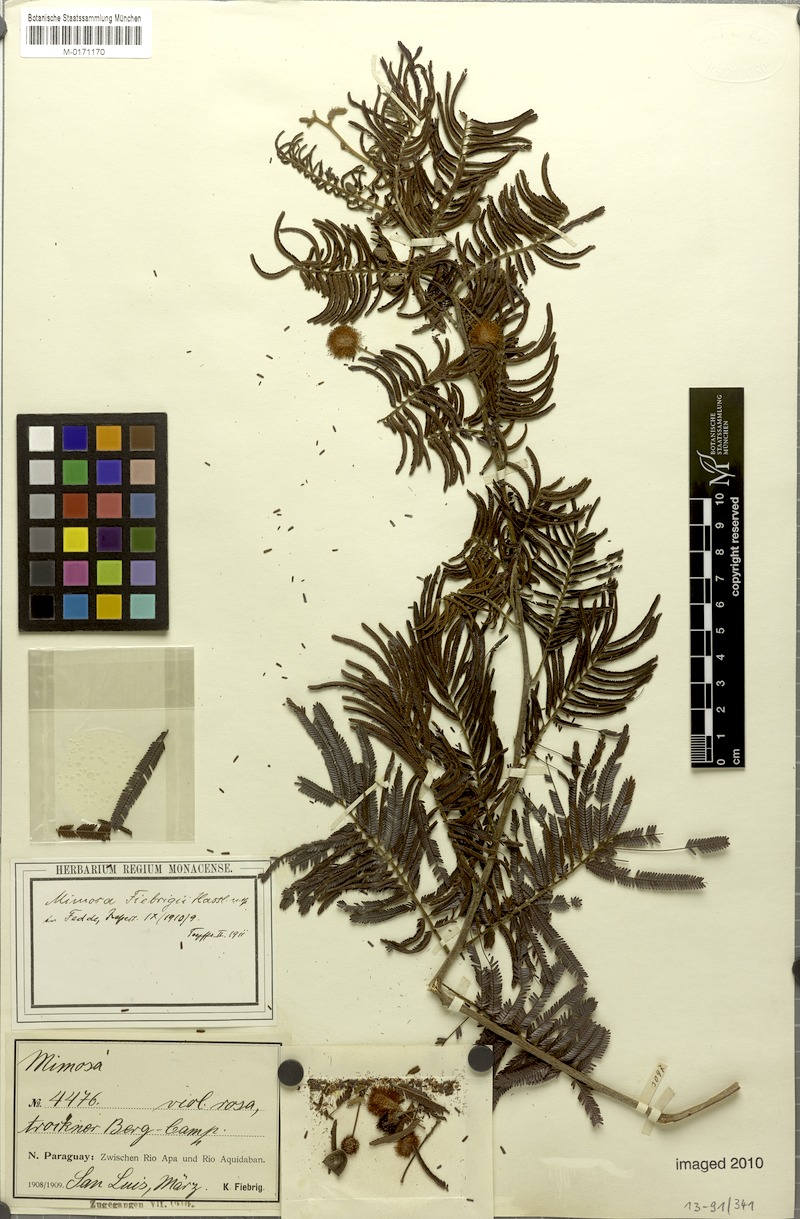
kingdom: Plantae
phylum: Tracheophyta
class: Magnoliopsida
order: Fabales
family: Fabaceae
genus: Mimosa
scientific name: Mimosa fiebrigii
